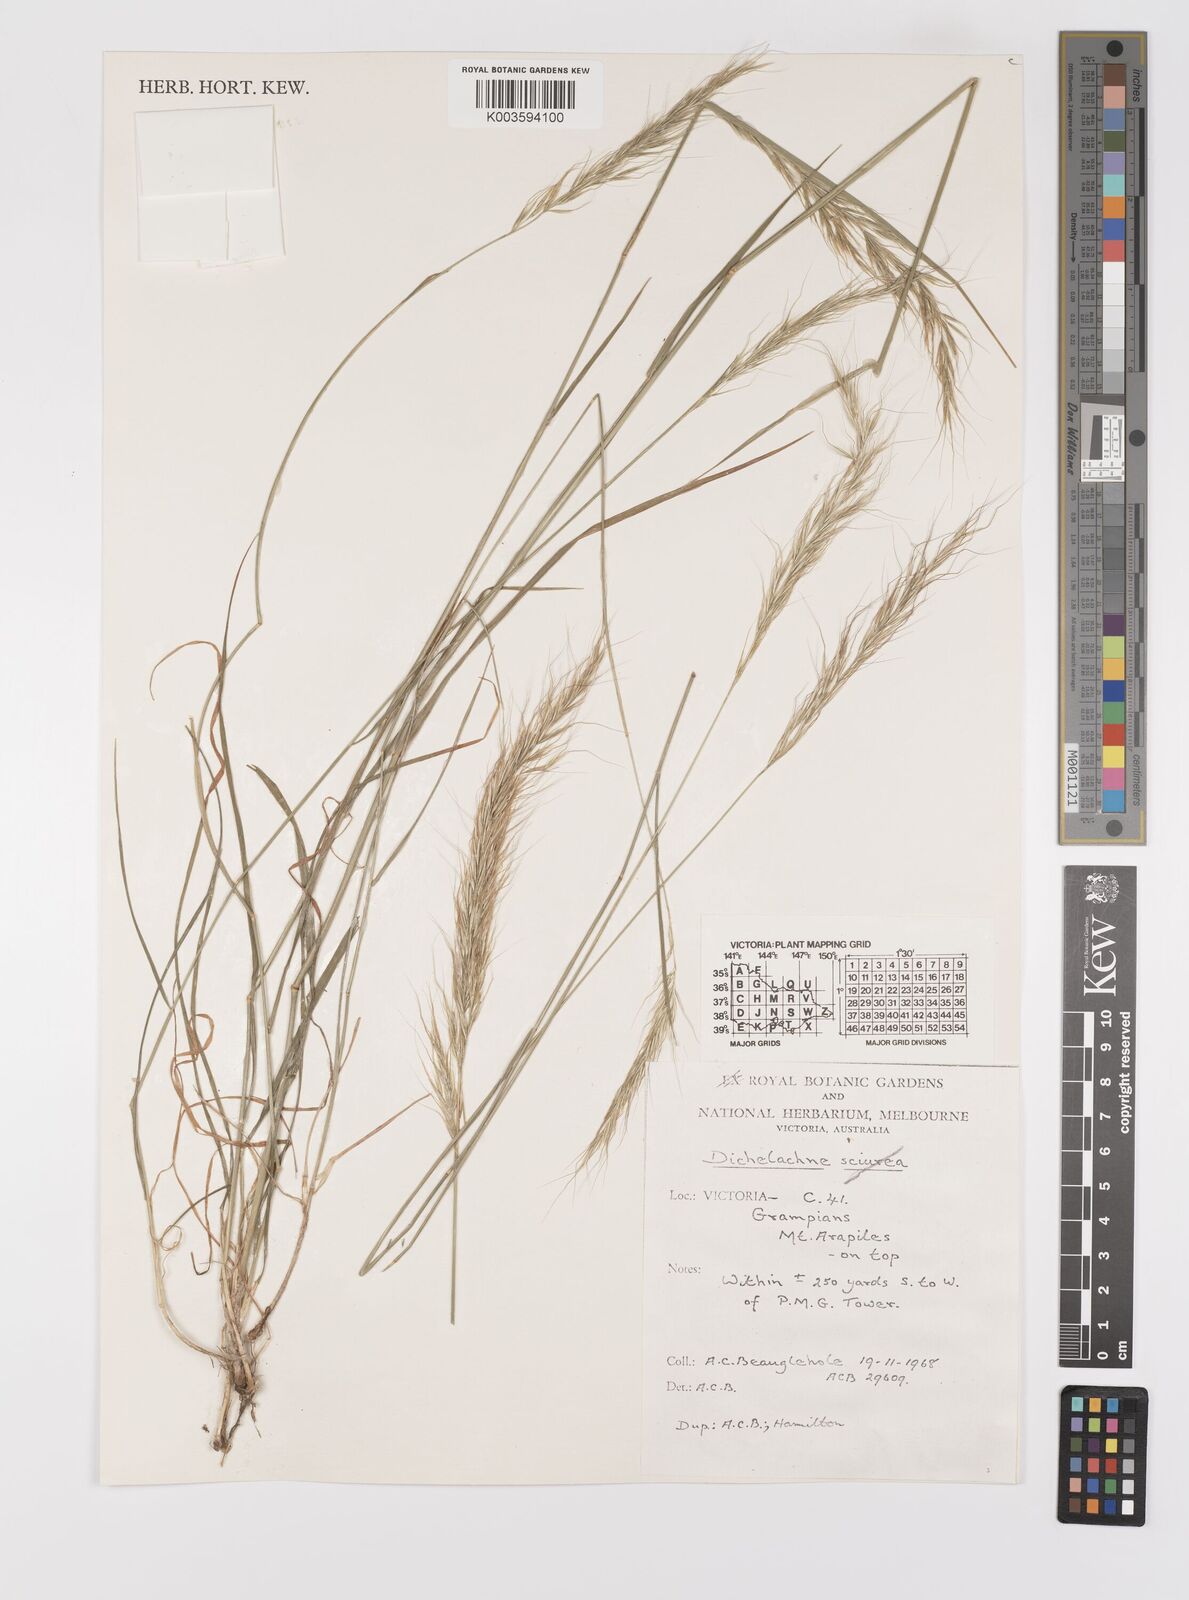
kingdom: Plantae
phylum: Tracheophyta
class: Liliopsida
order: Poales
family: Poaceae
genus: Dichelachne
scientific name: Dichelachne
